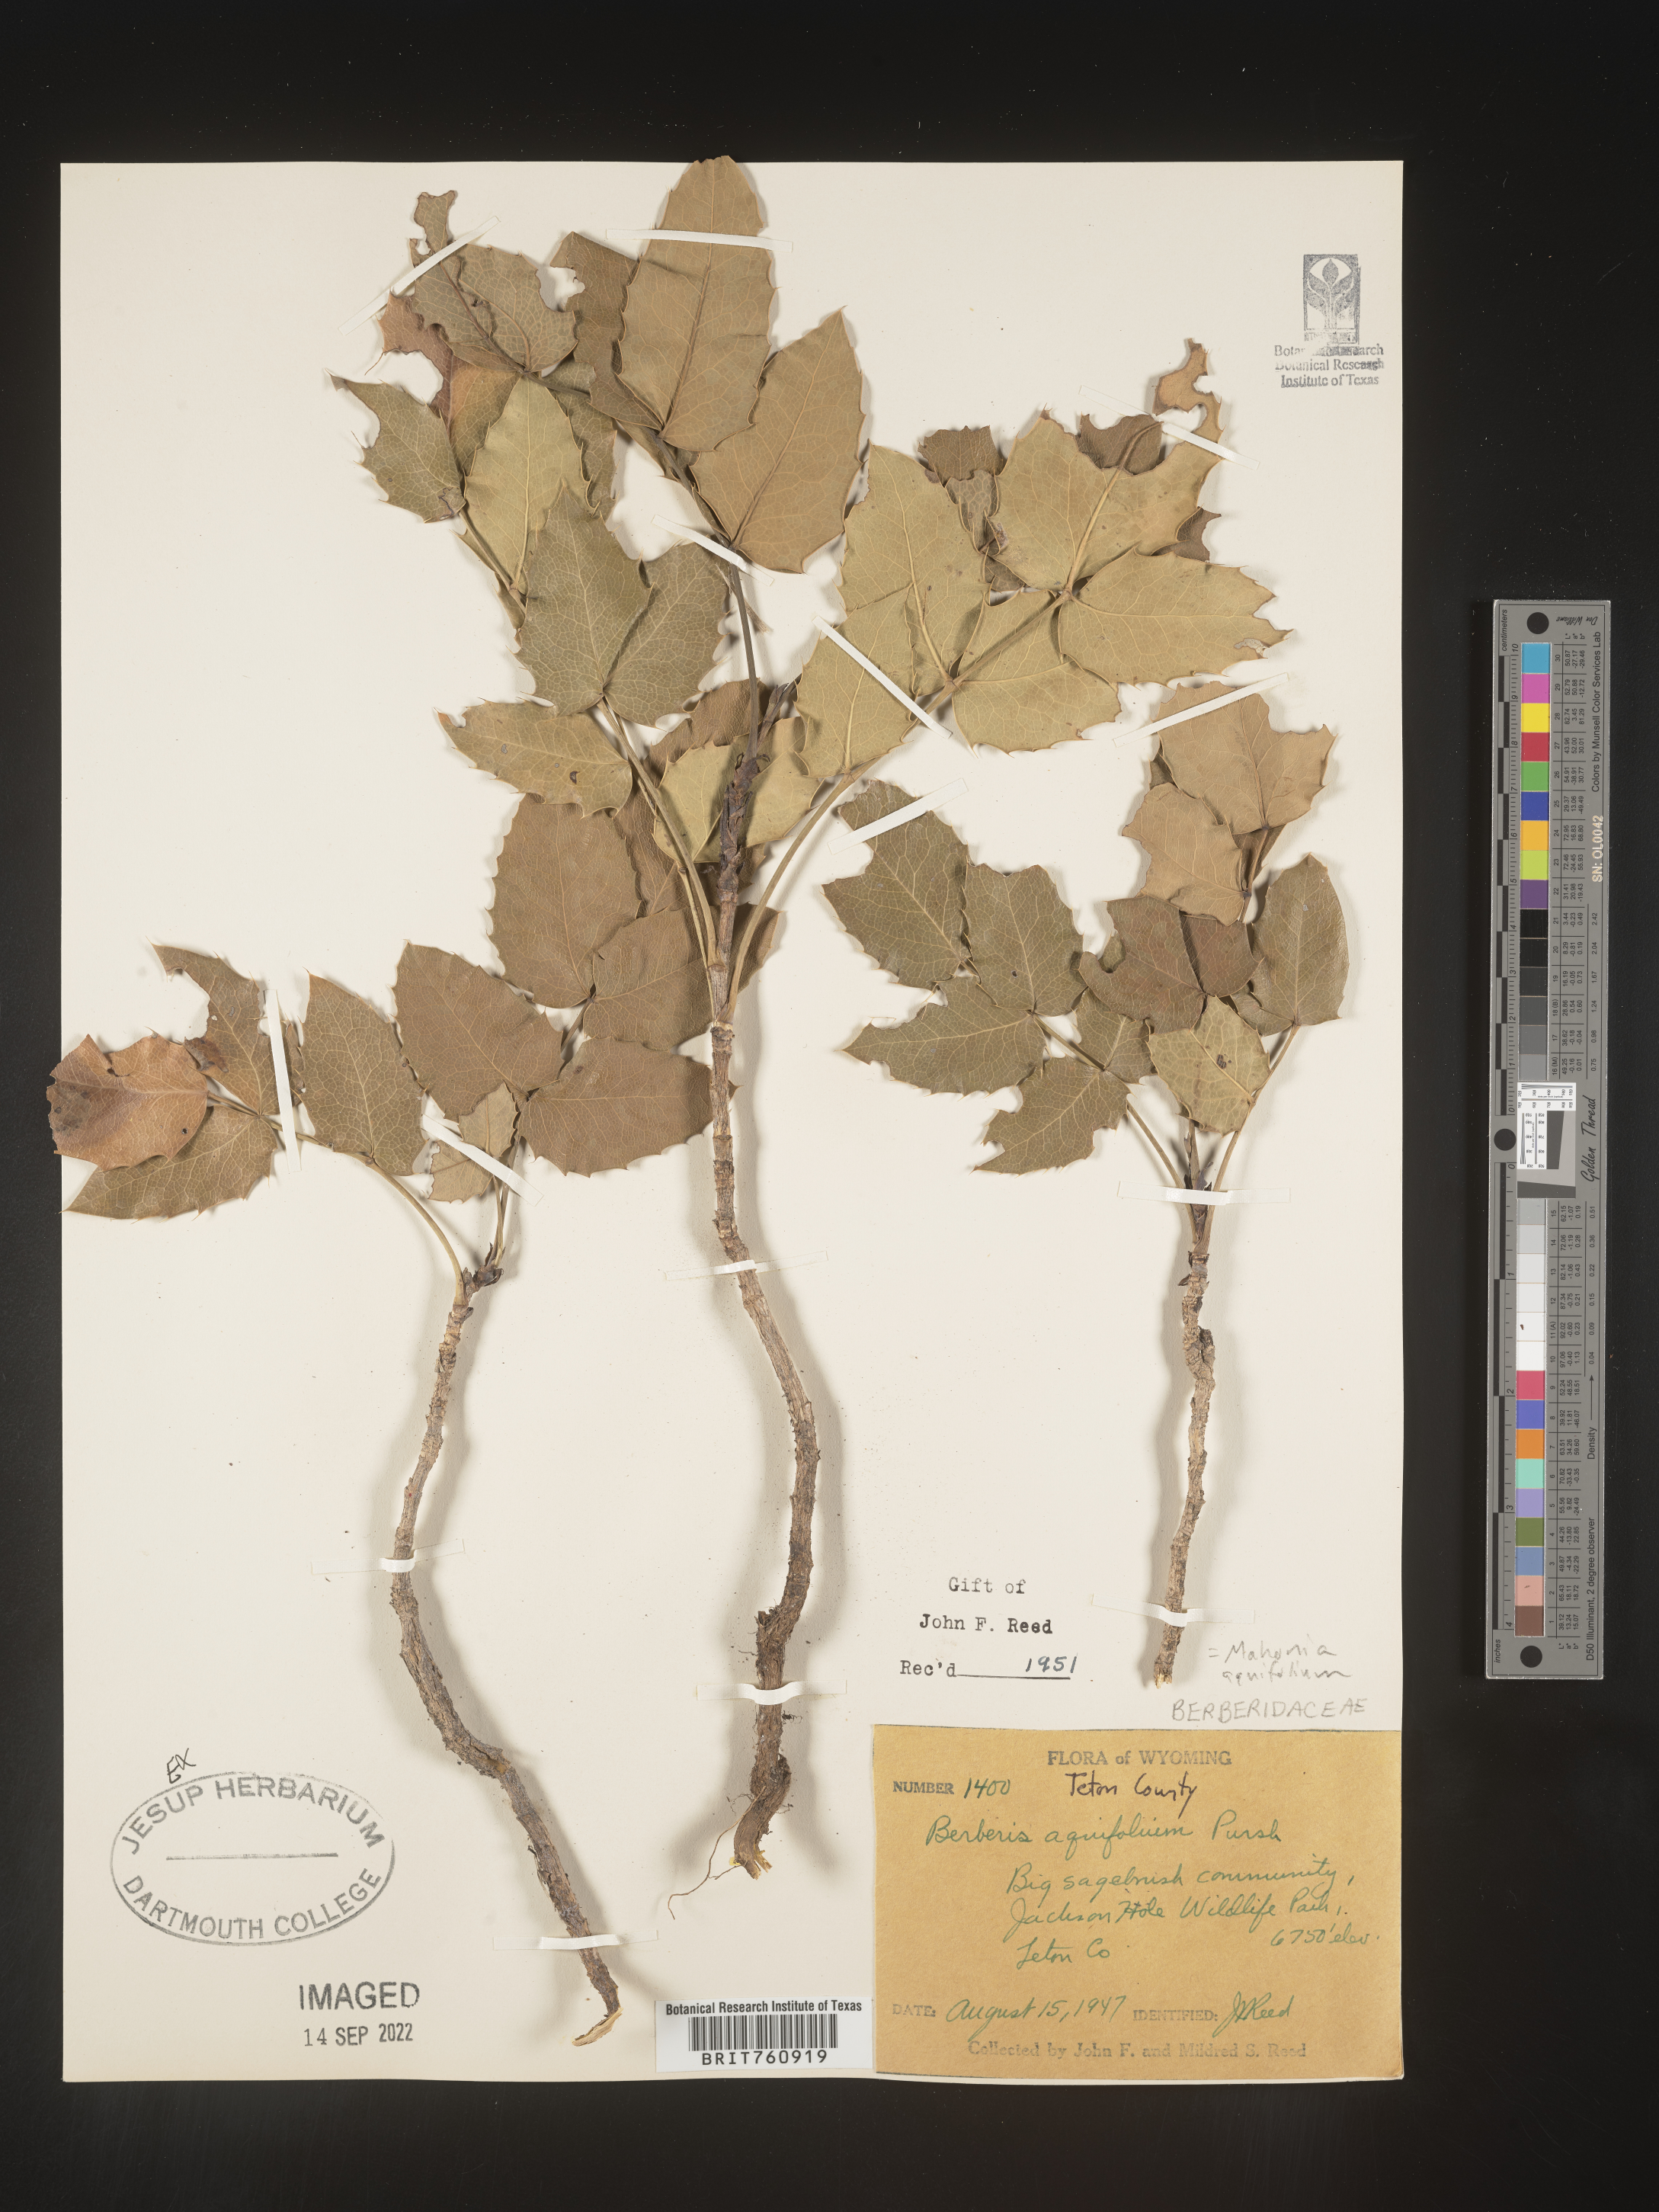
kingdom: Plantae
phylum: Tracheophyta
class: Magnoliopsida
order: Ranunculales
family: Berberidaceae
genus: Mahonia
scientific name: Mahonia aquifolium
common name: Oregon-grape
